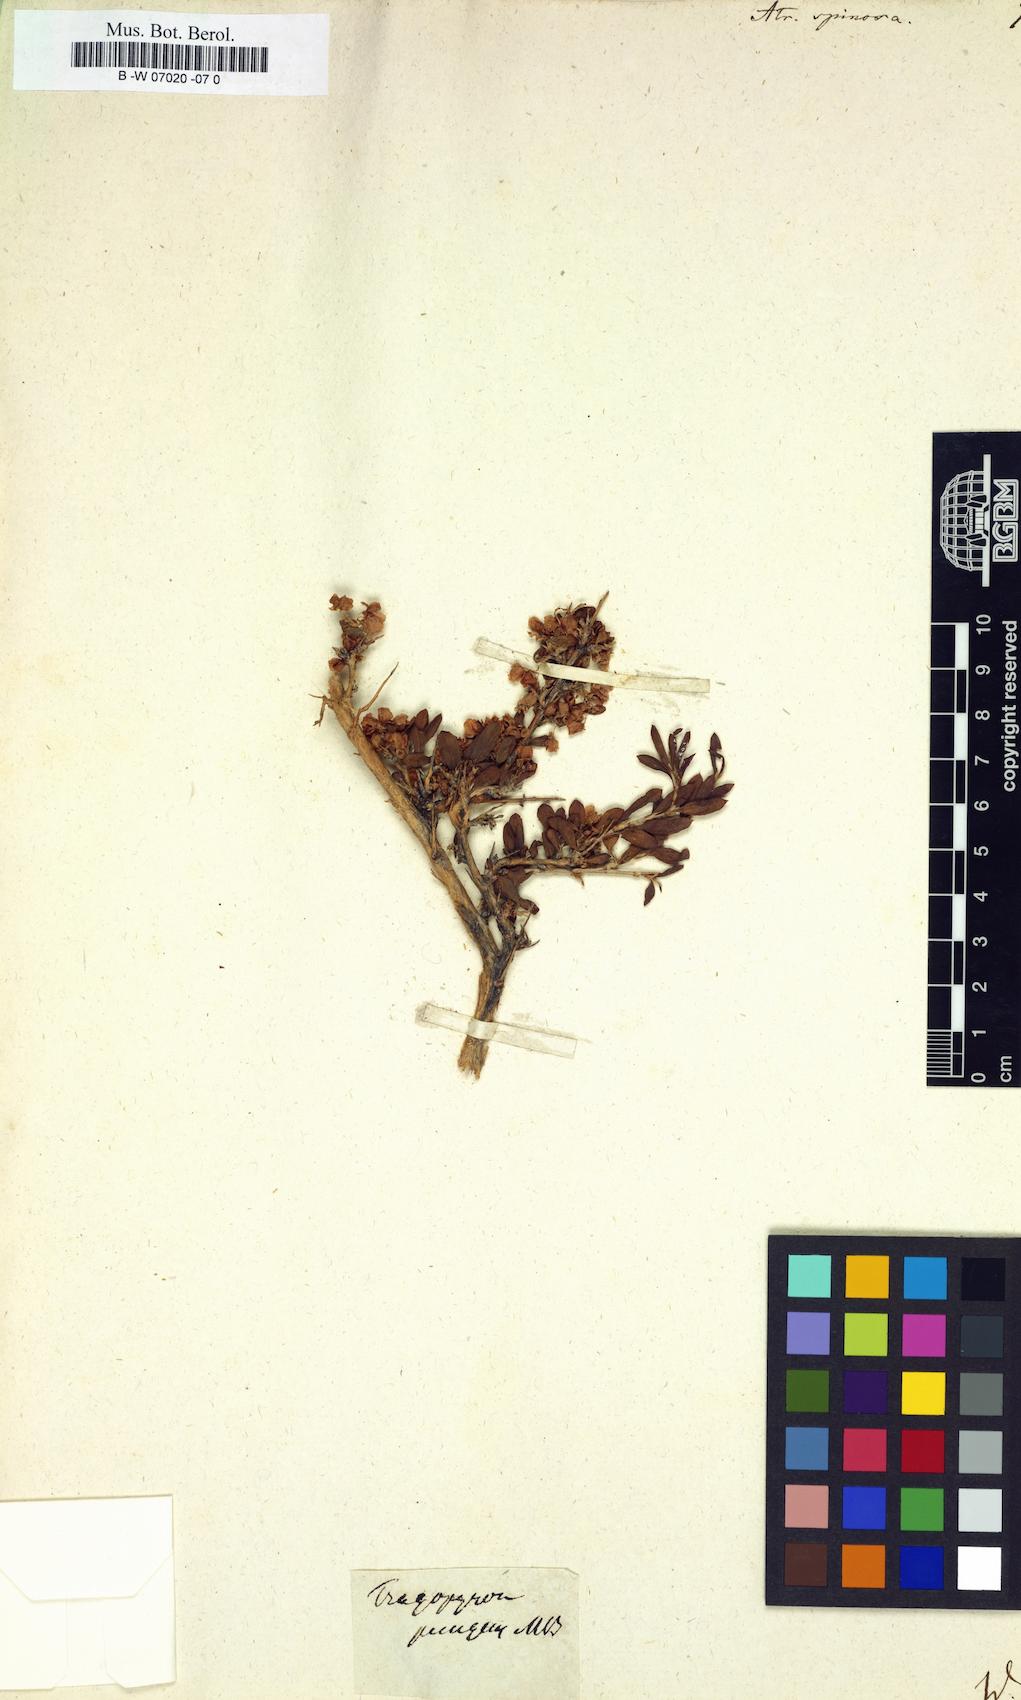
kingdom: Plantae
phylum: Tracheophyta
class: Magnoliopsida
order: Caryophyllales
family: Polygonaceae
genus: Atraphaxis
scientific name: Atraphaxis spinosa
